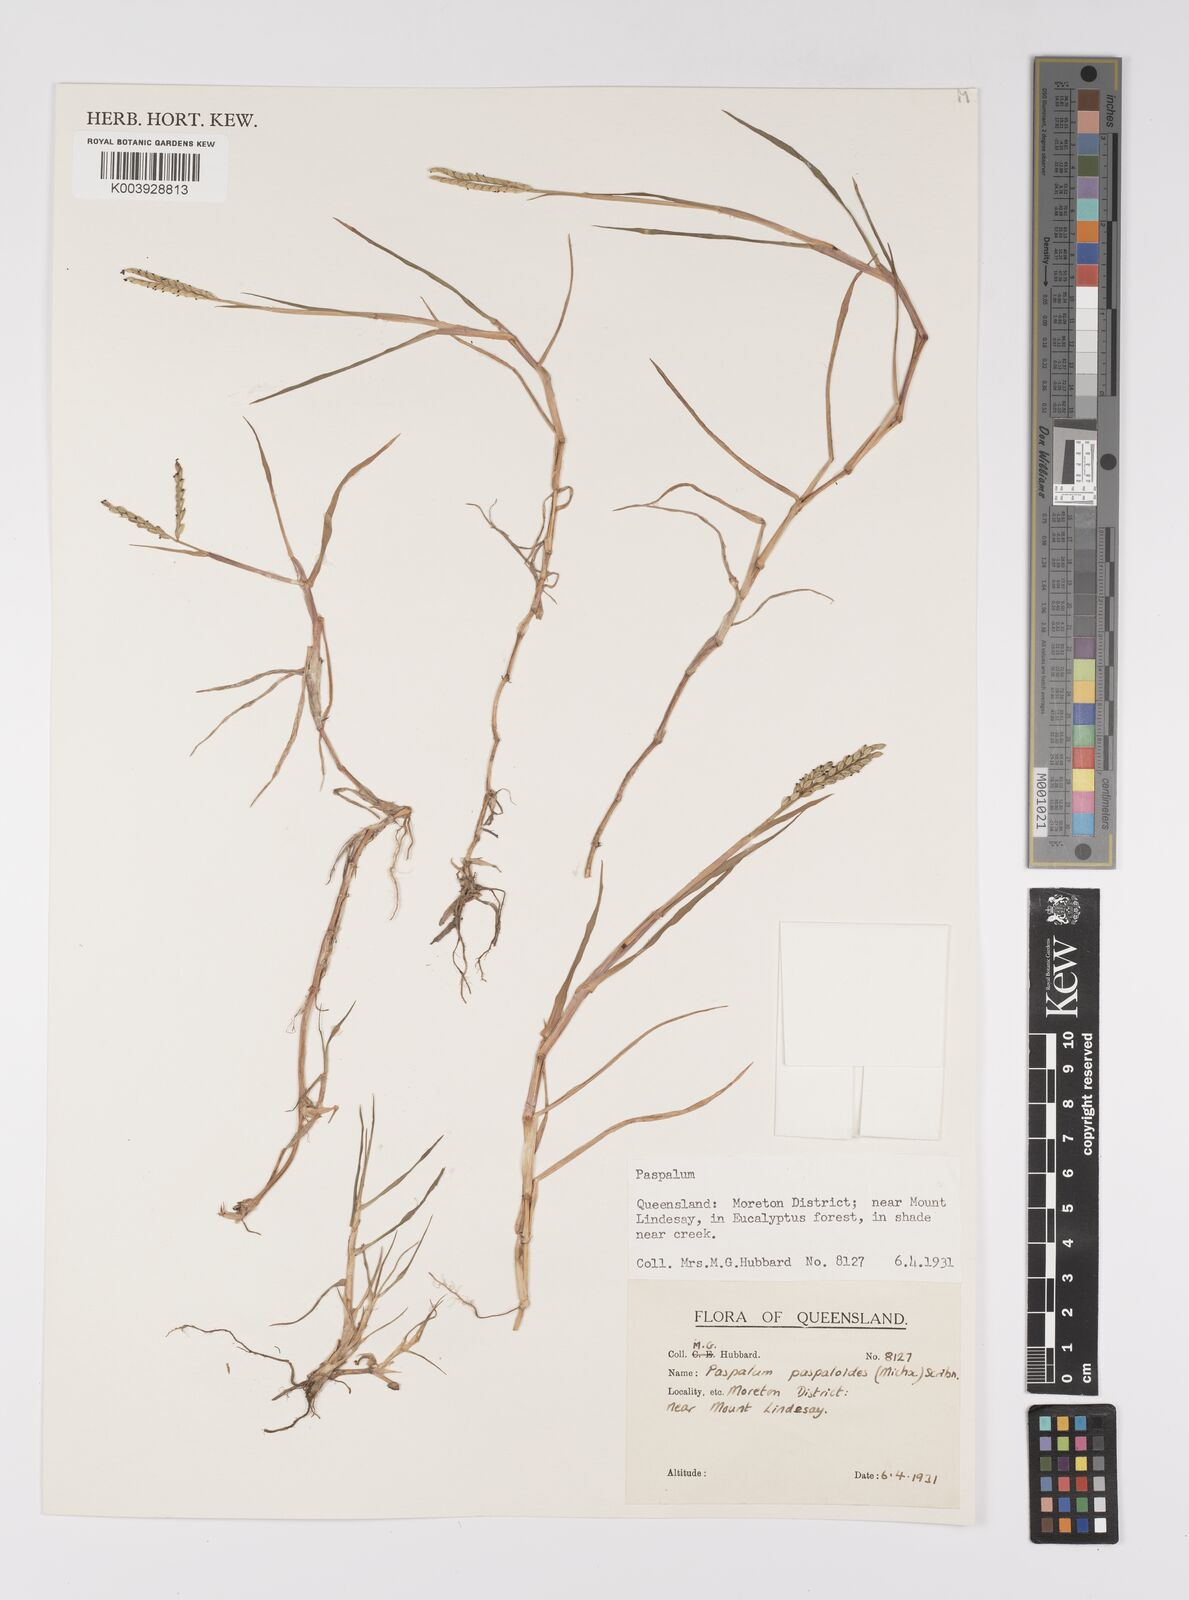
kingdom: Plantae
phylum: Tracheophyta
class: Liliopsida
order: Poales
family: Poaceae
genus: Paspalum
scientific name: Paspalum distichum
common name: Knotgrass
